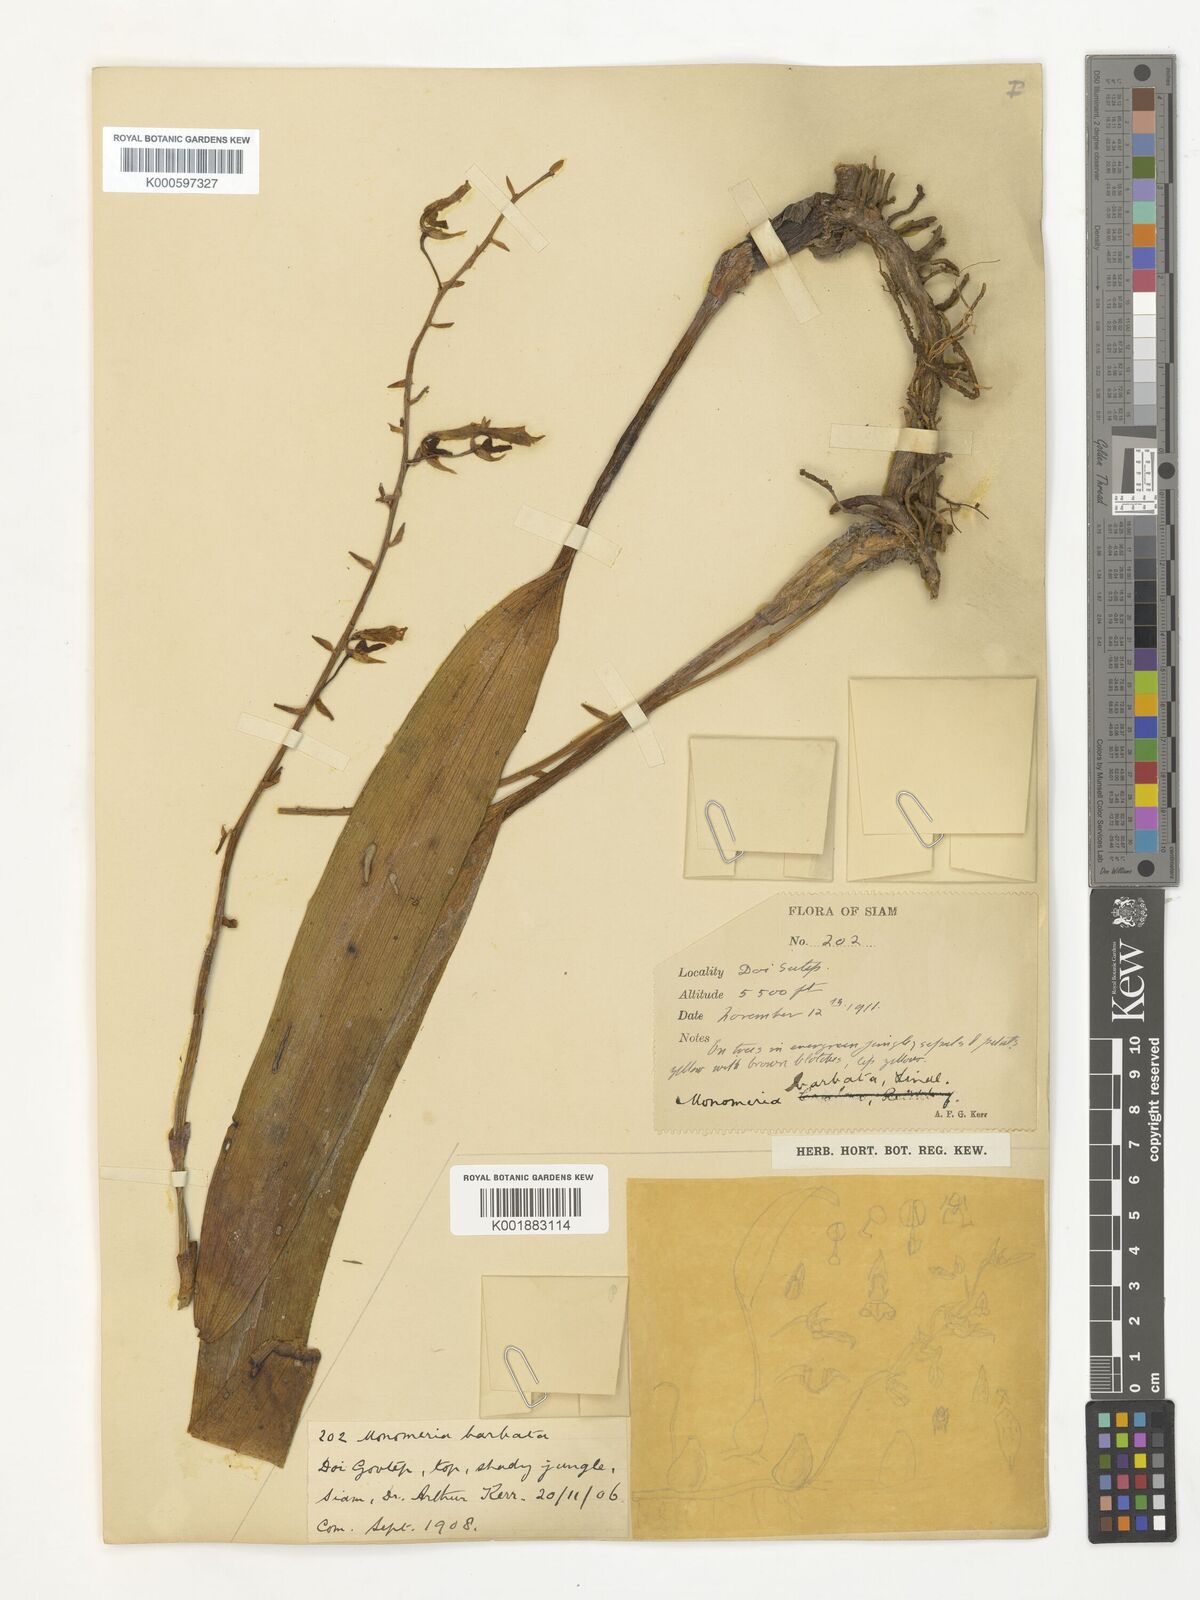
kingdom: Plantae
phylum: Tracheophyta
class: Liliopsida
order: Asparagales
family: Orchidaceae
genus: Bulbophyllum
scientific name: Bulbophyllum crabro
